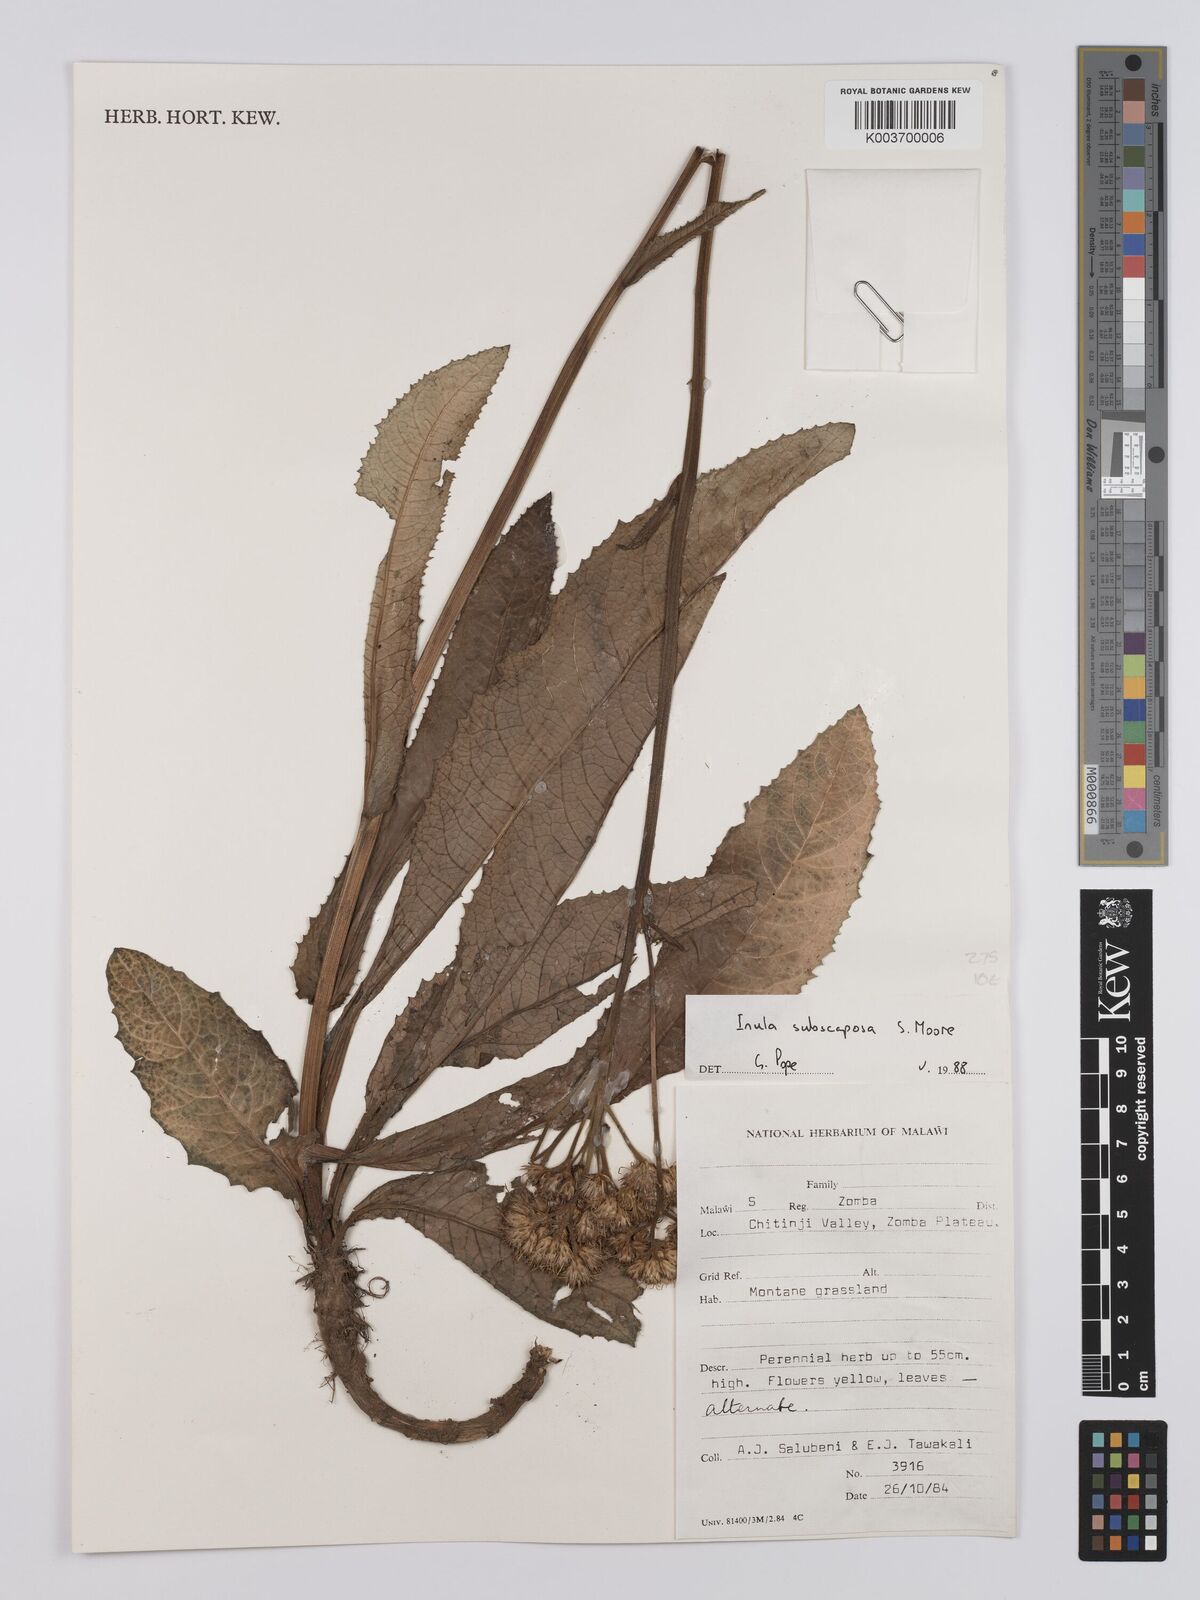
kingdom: Plantae
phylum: Tracheophyta
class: Magnoliopsida
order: Asterales
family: Asteraceae
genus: Monactinocephalus
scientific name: Monactinocephalus paniculatus
